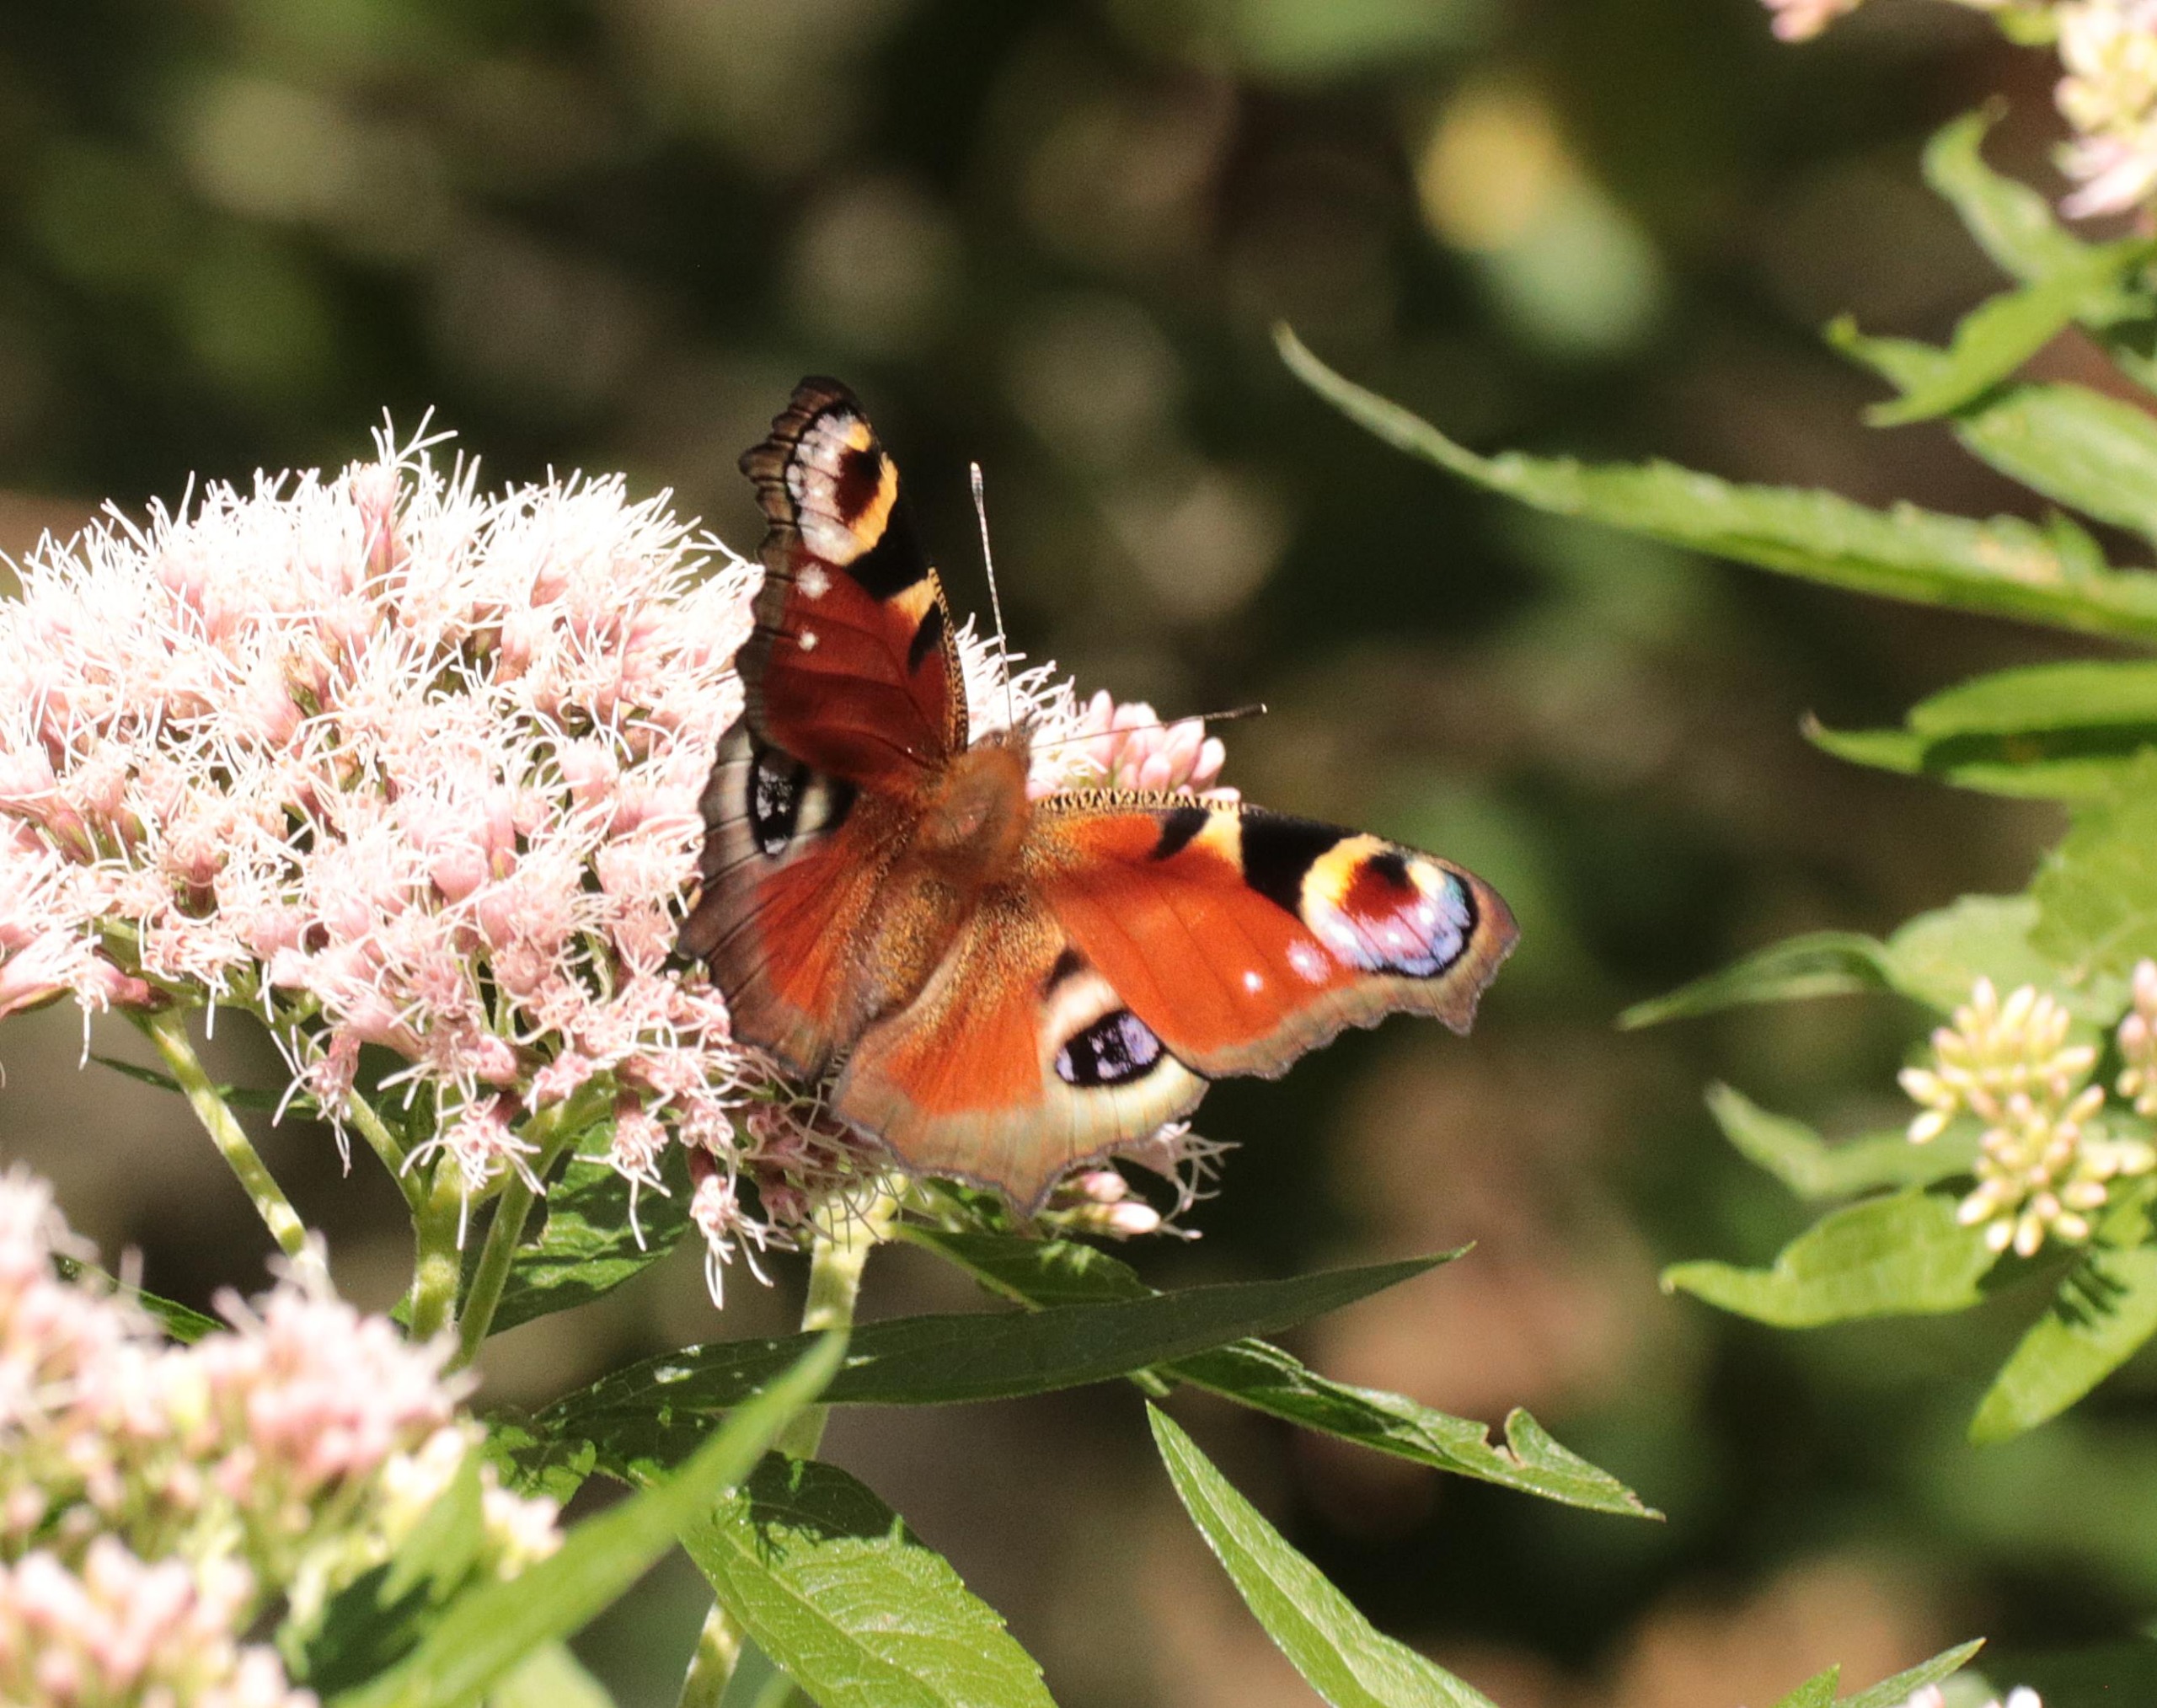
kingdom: Animalia
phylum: Arthropoda
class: Insecta
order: Lepidoptera
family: Nymphalidae
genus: Aglais
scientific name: Aglais io
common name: Dagpåfugleøje
